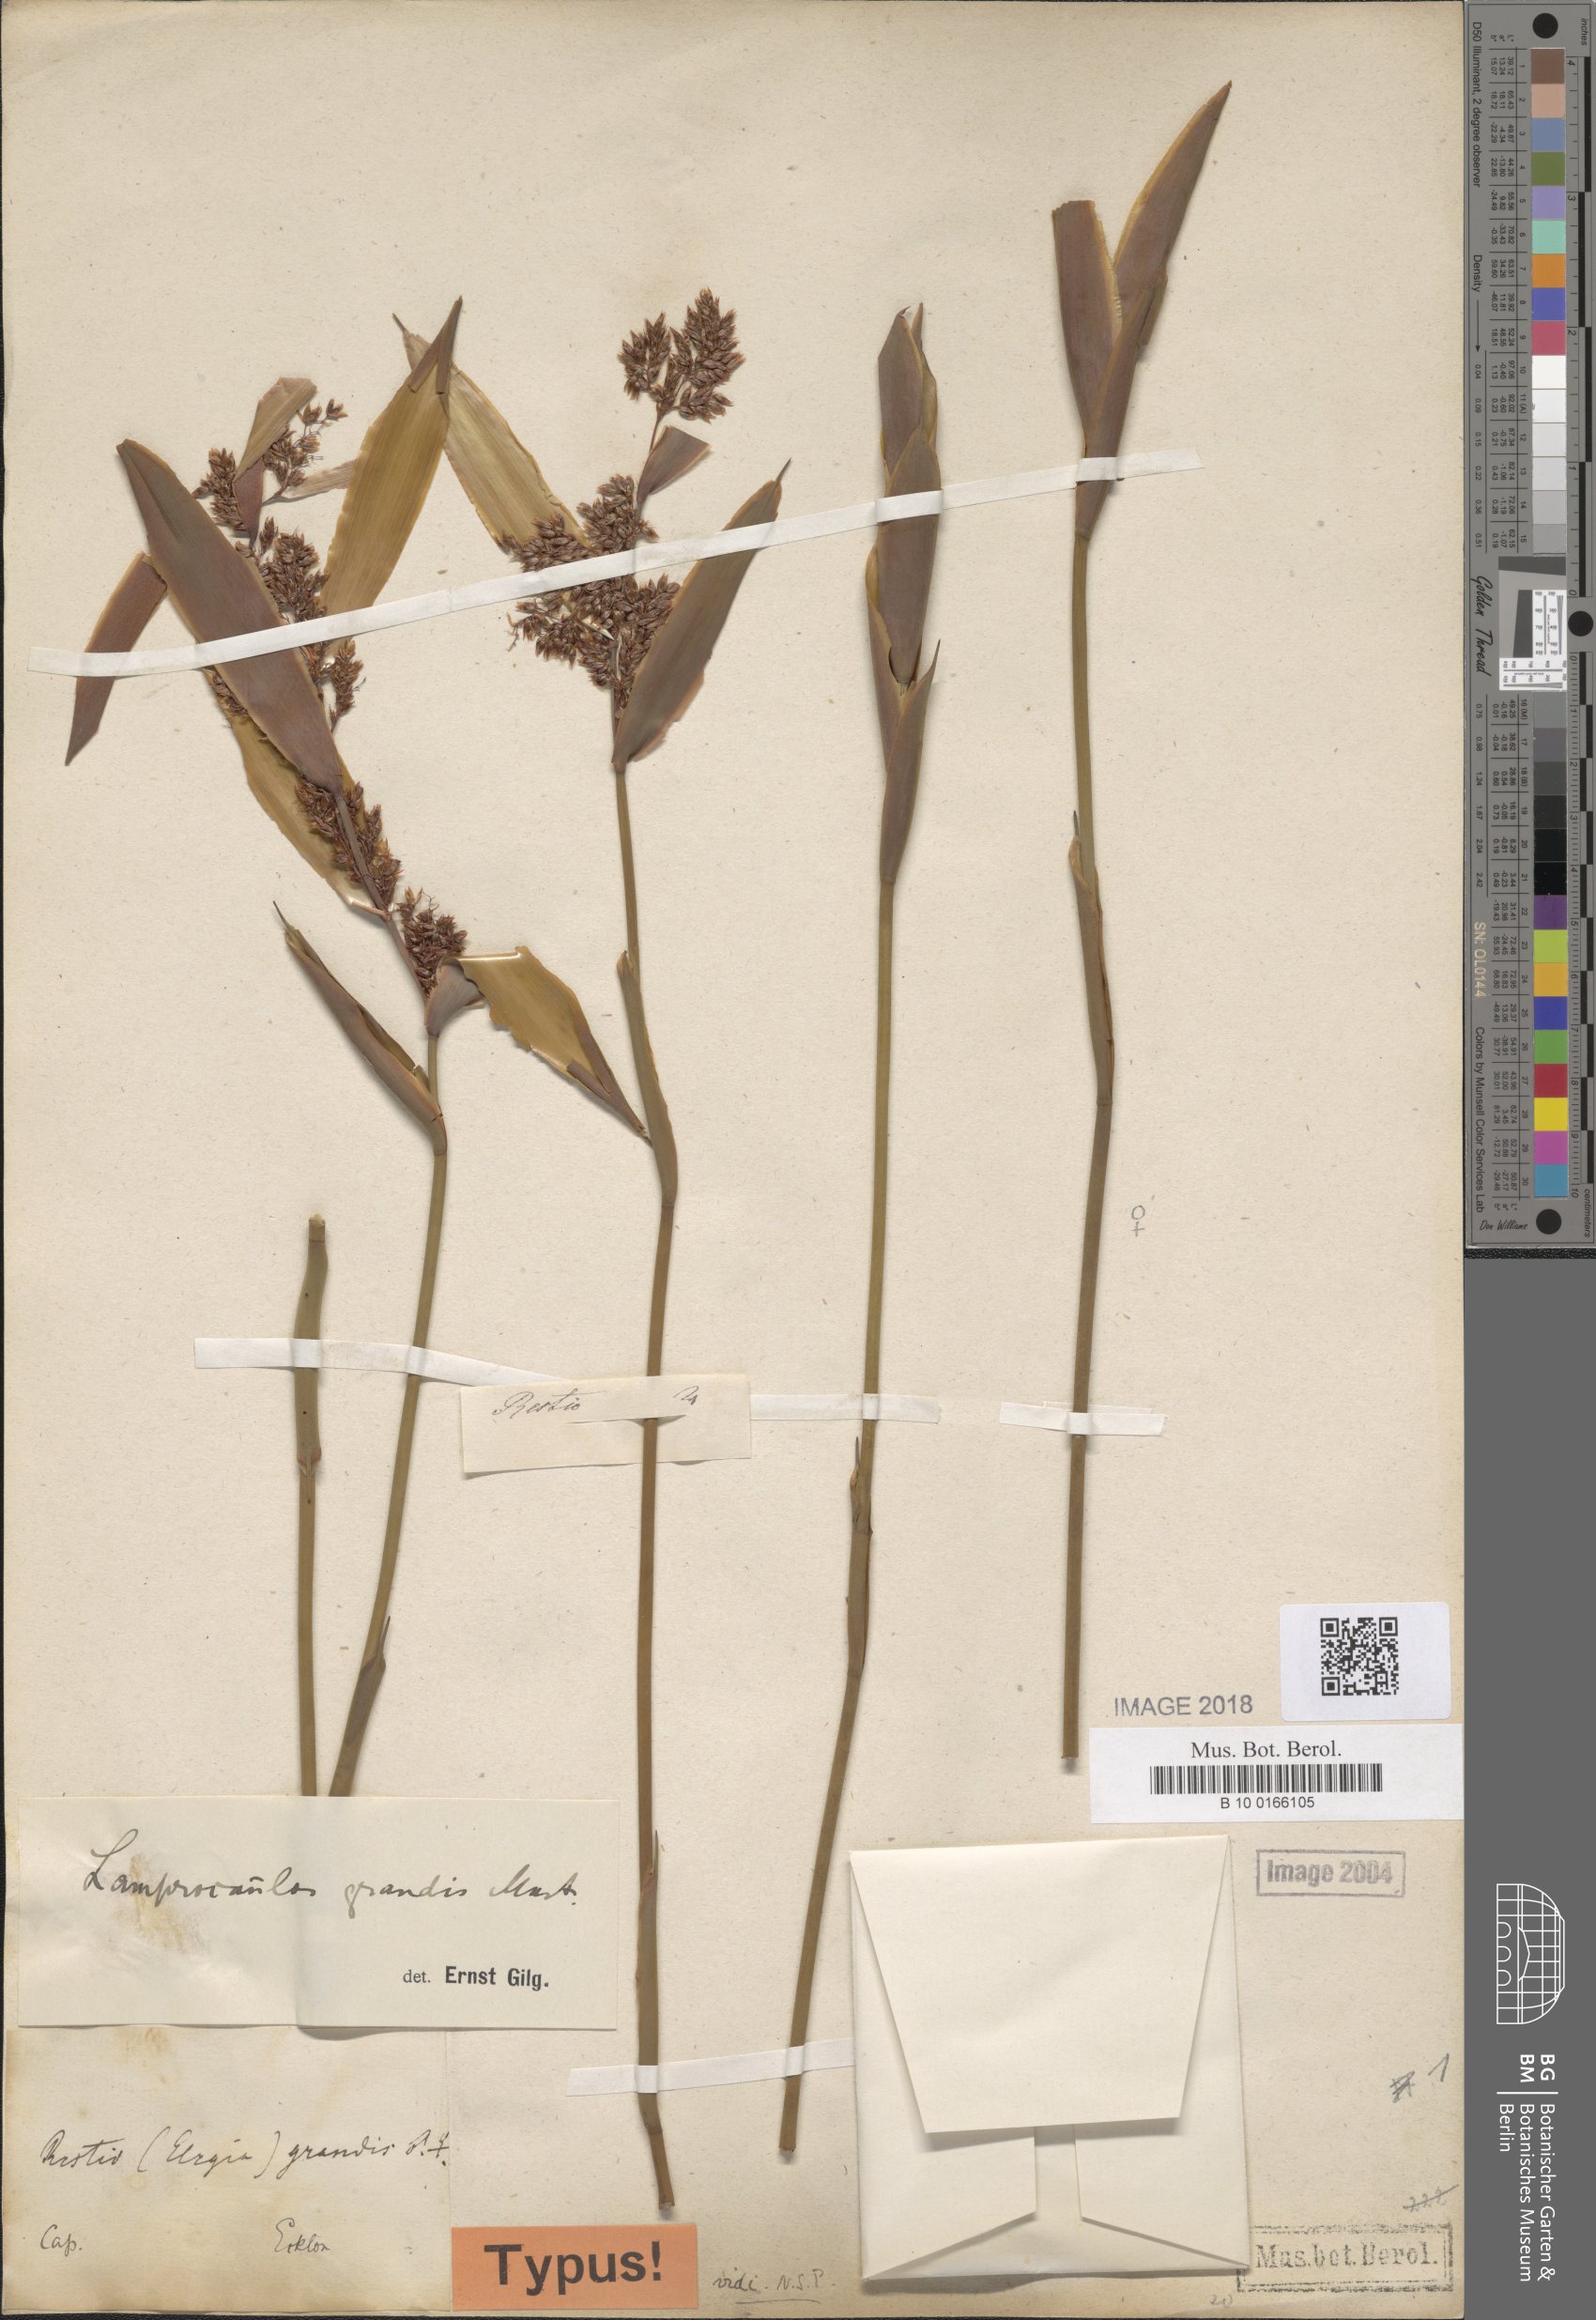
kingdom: Plantae
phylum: Tracheophyta
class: Liliopsida
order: Poales
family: Restionaceae
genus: Elegia
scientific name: Elegia grandis
